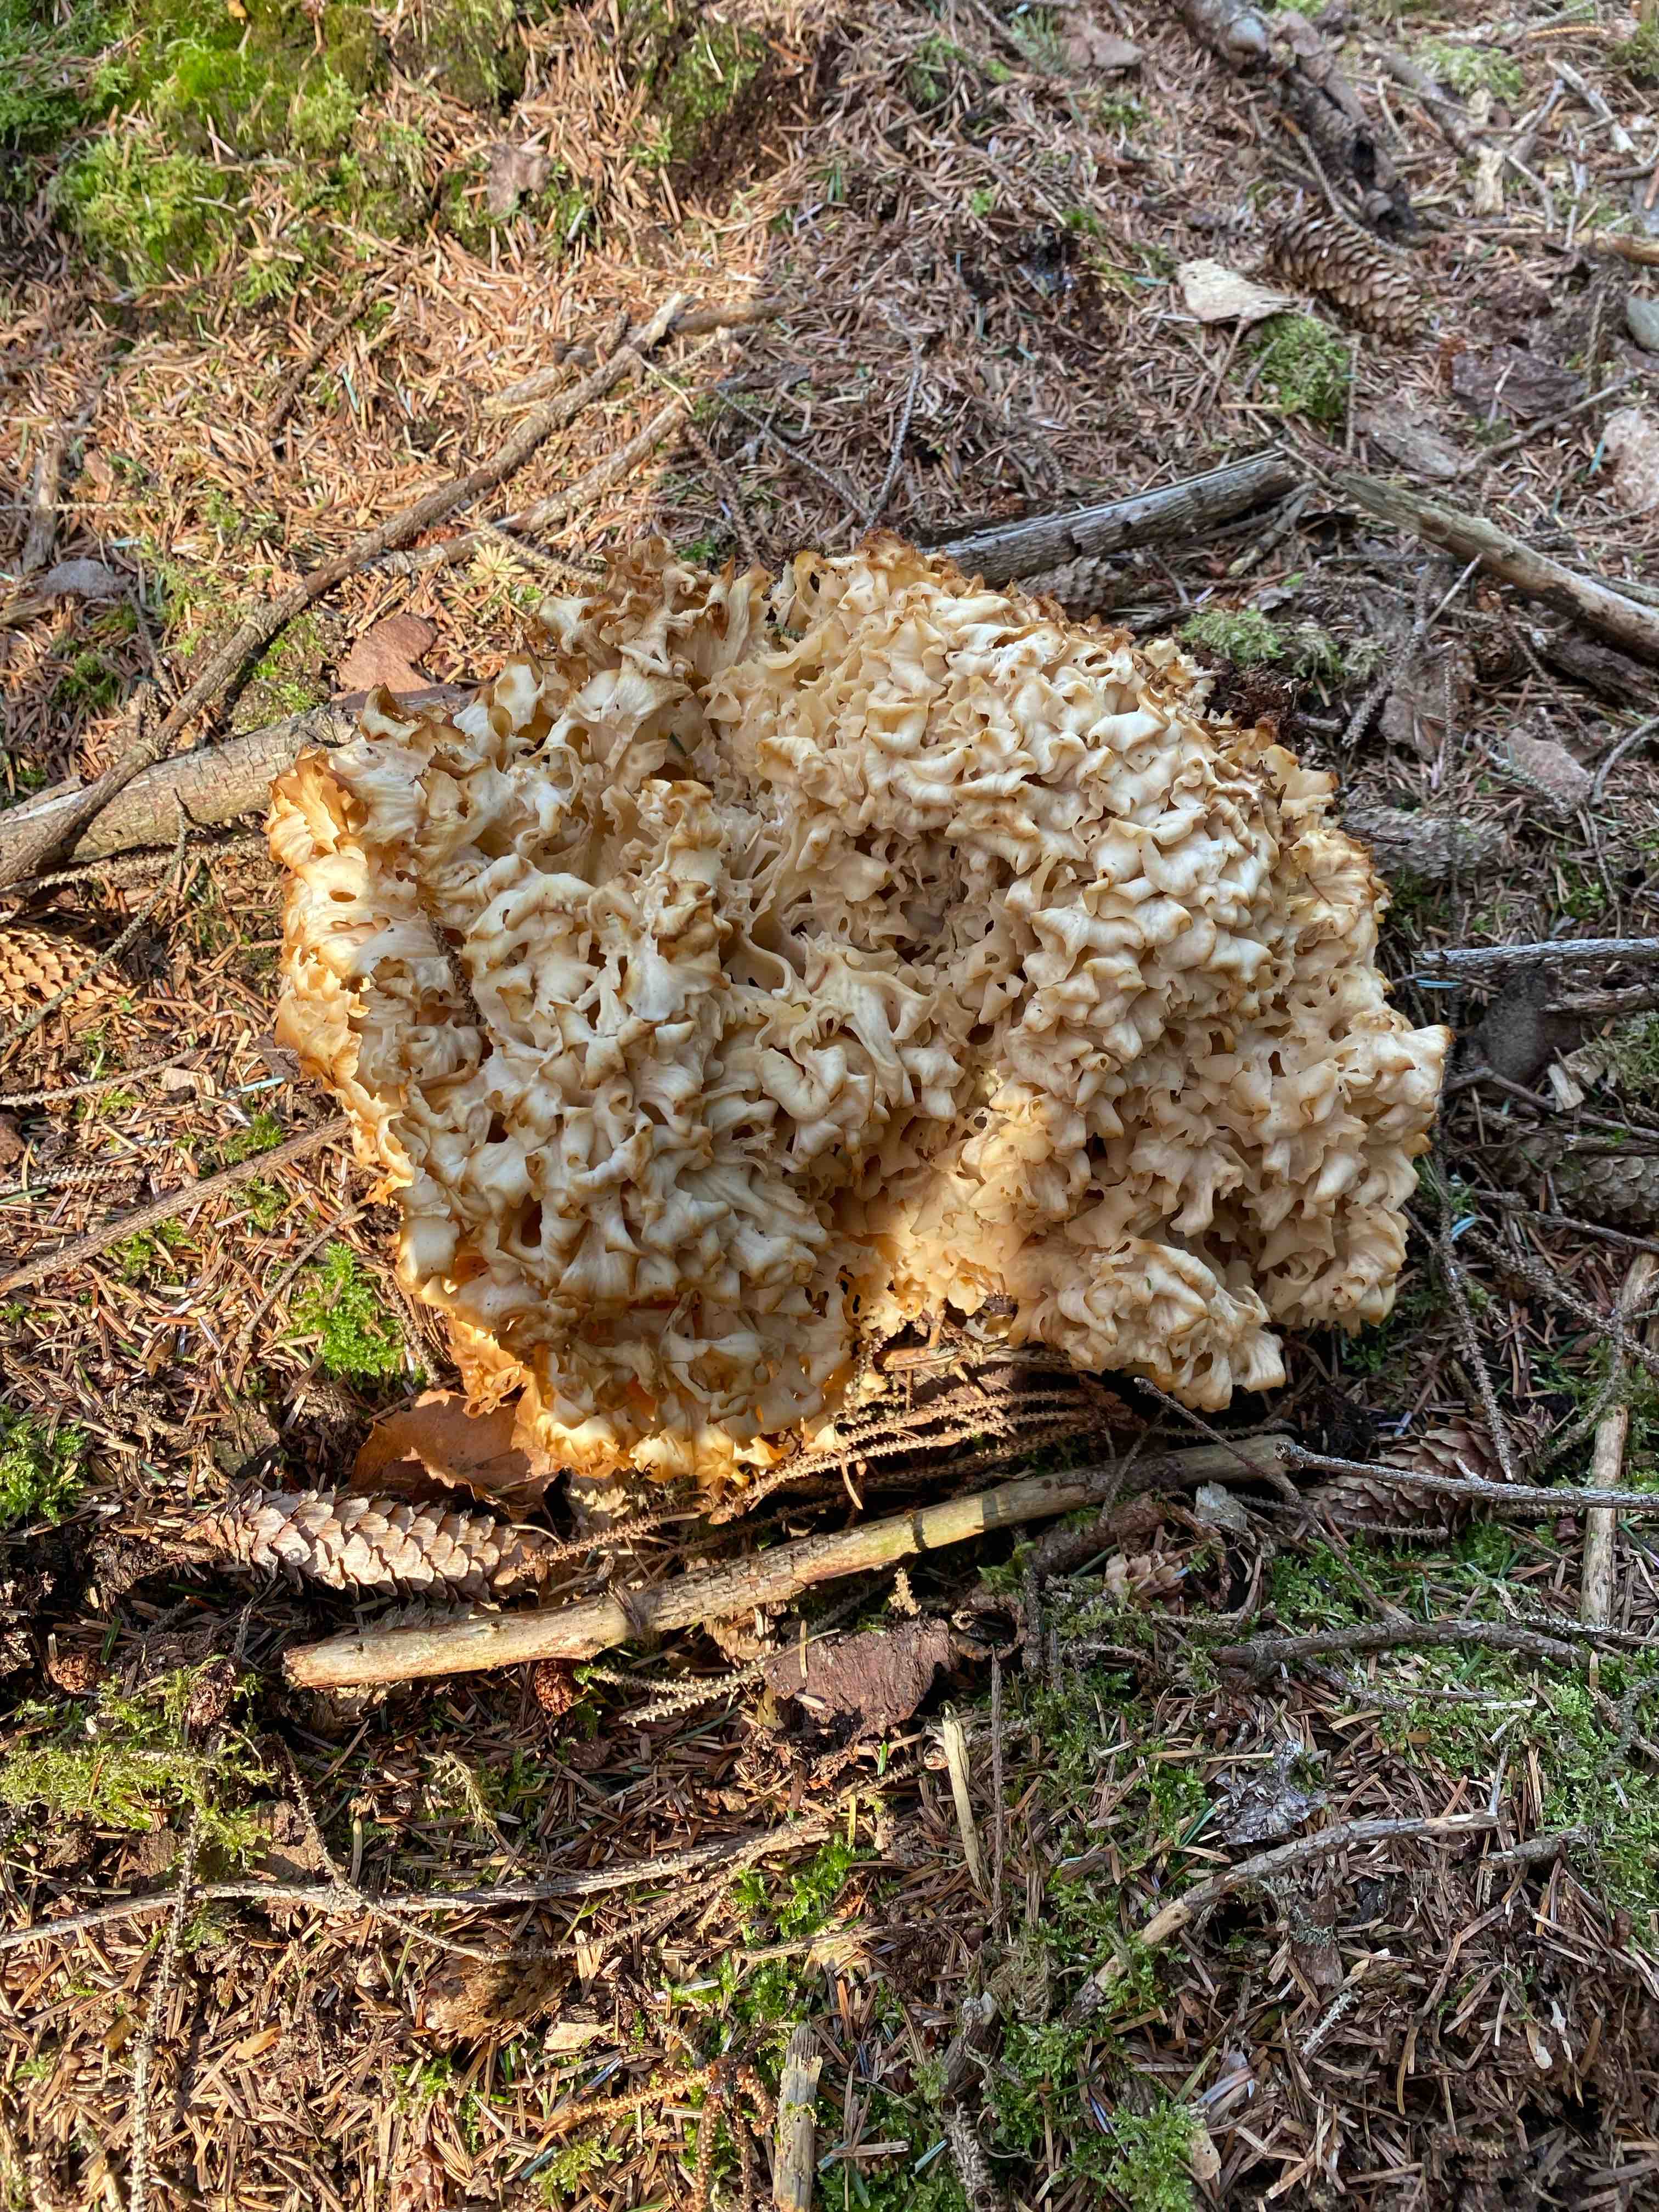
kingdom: Fungi
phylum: Basidiomycota
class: Agaricomycetes
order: Polyporales
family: Sparassidaceae
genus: Sparassis
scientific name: Sparassis crispa
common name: kruset blomkålssvamp
